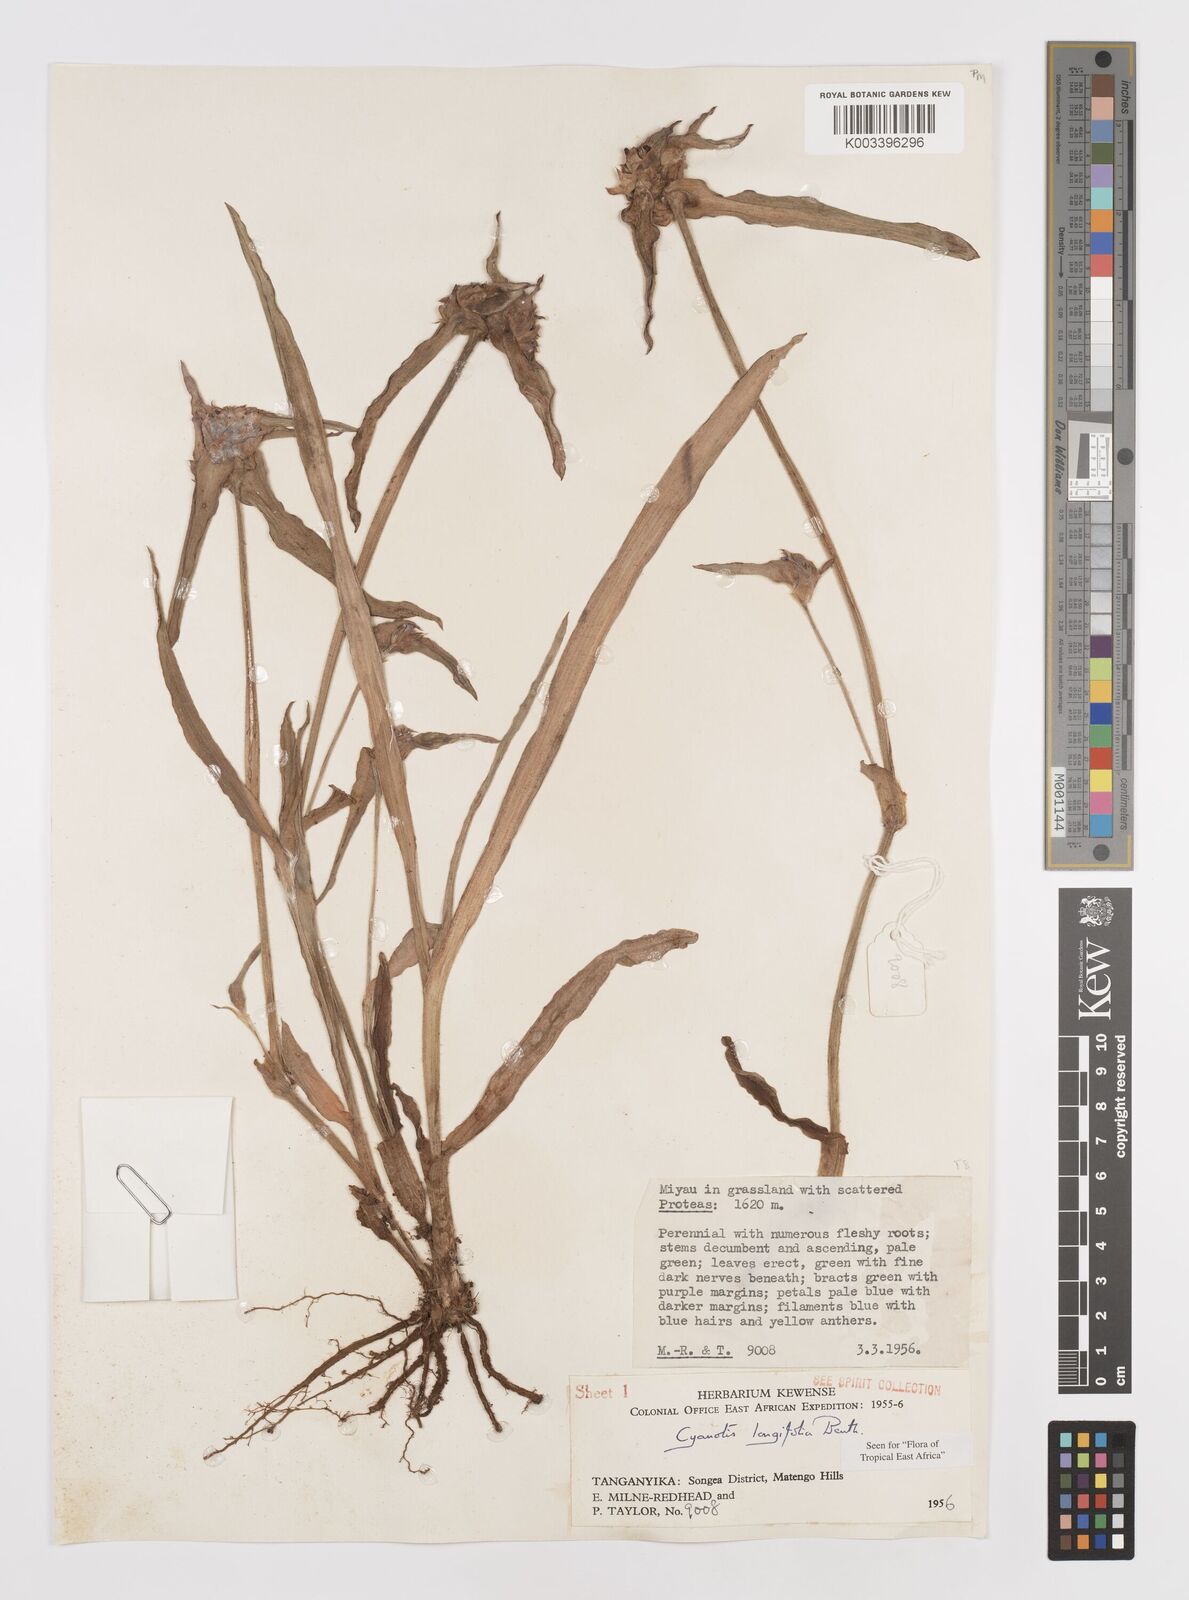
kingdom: Plantae
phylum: Tracheophyta
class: Liliopsida
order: Commelinales
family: Commelinaceae
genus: Cyanotis
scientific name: Cyanotis longifolia
